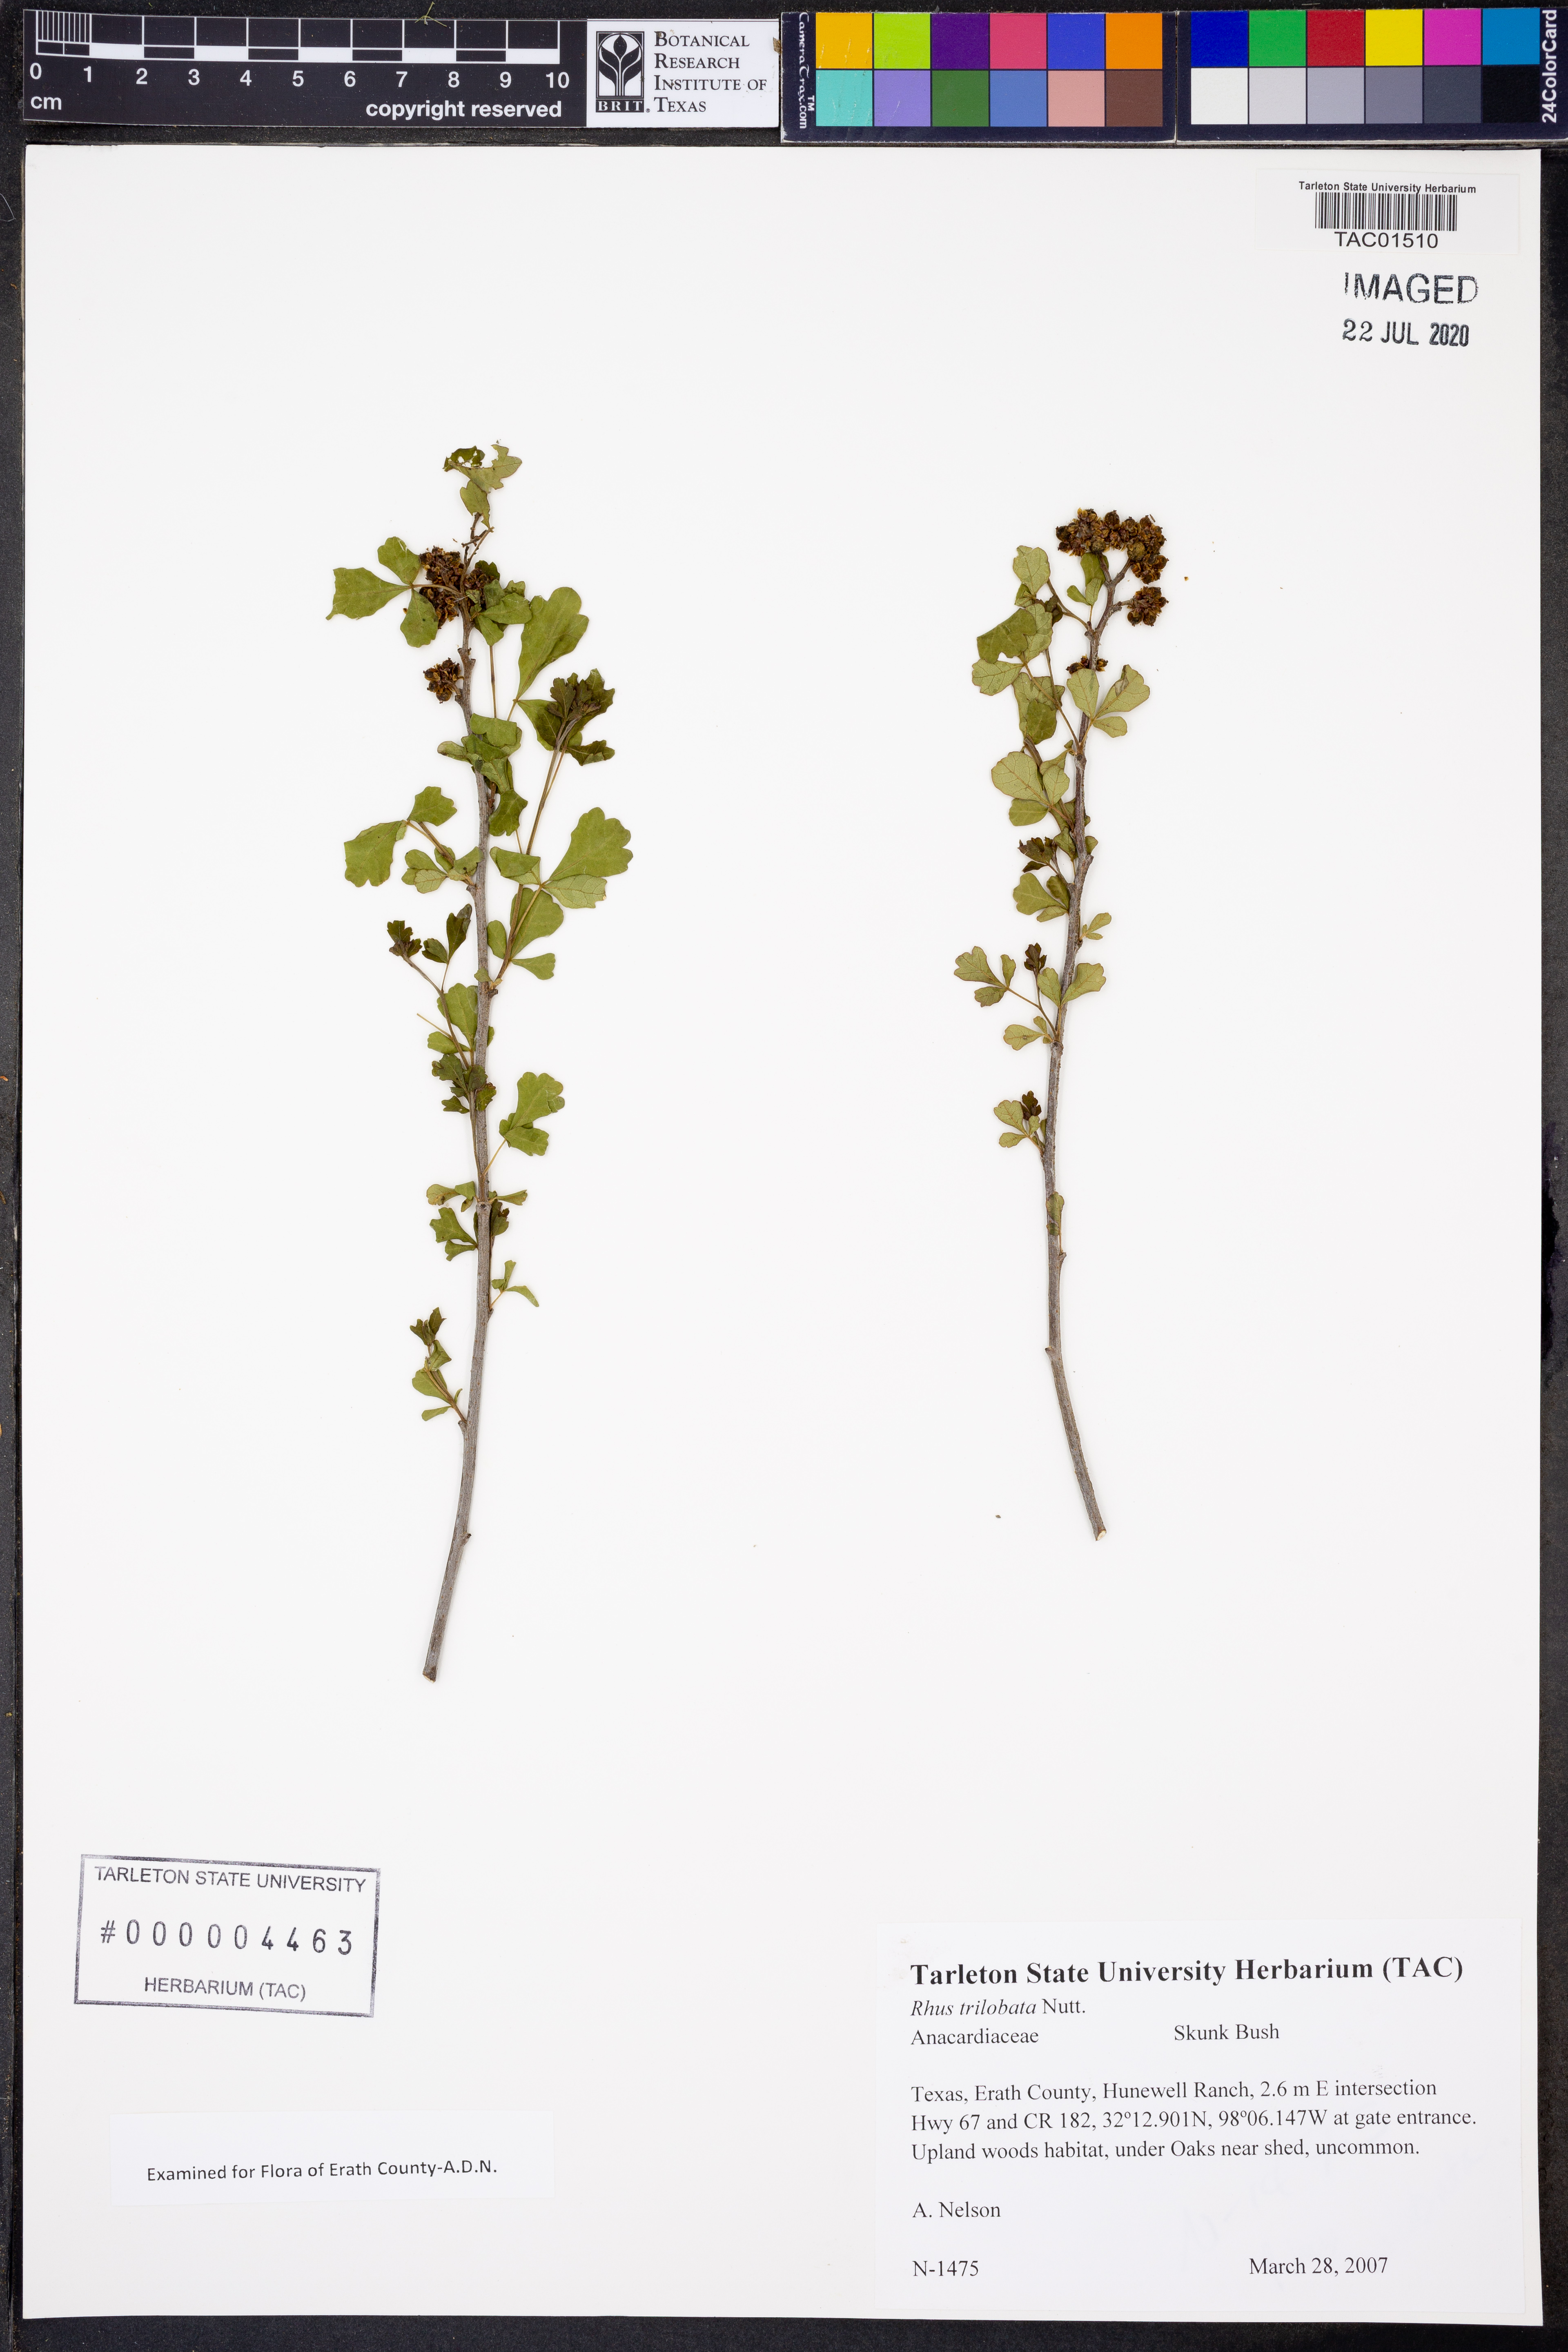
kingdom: Plantae
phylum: Tracheophyta
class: Magnoliopsida
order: Sapindales
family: Anacardiaceae
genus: Rhus
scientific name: Rhus trilobata
